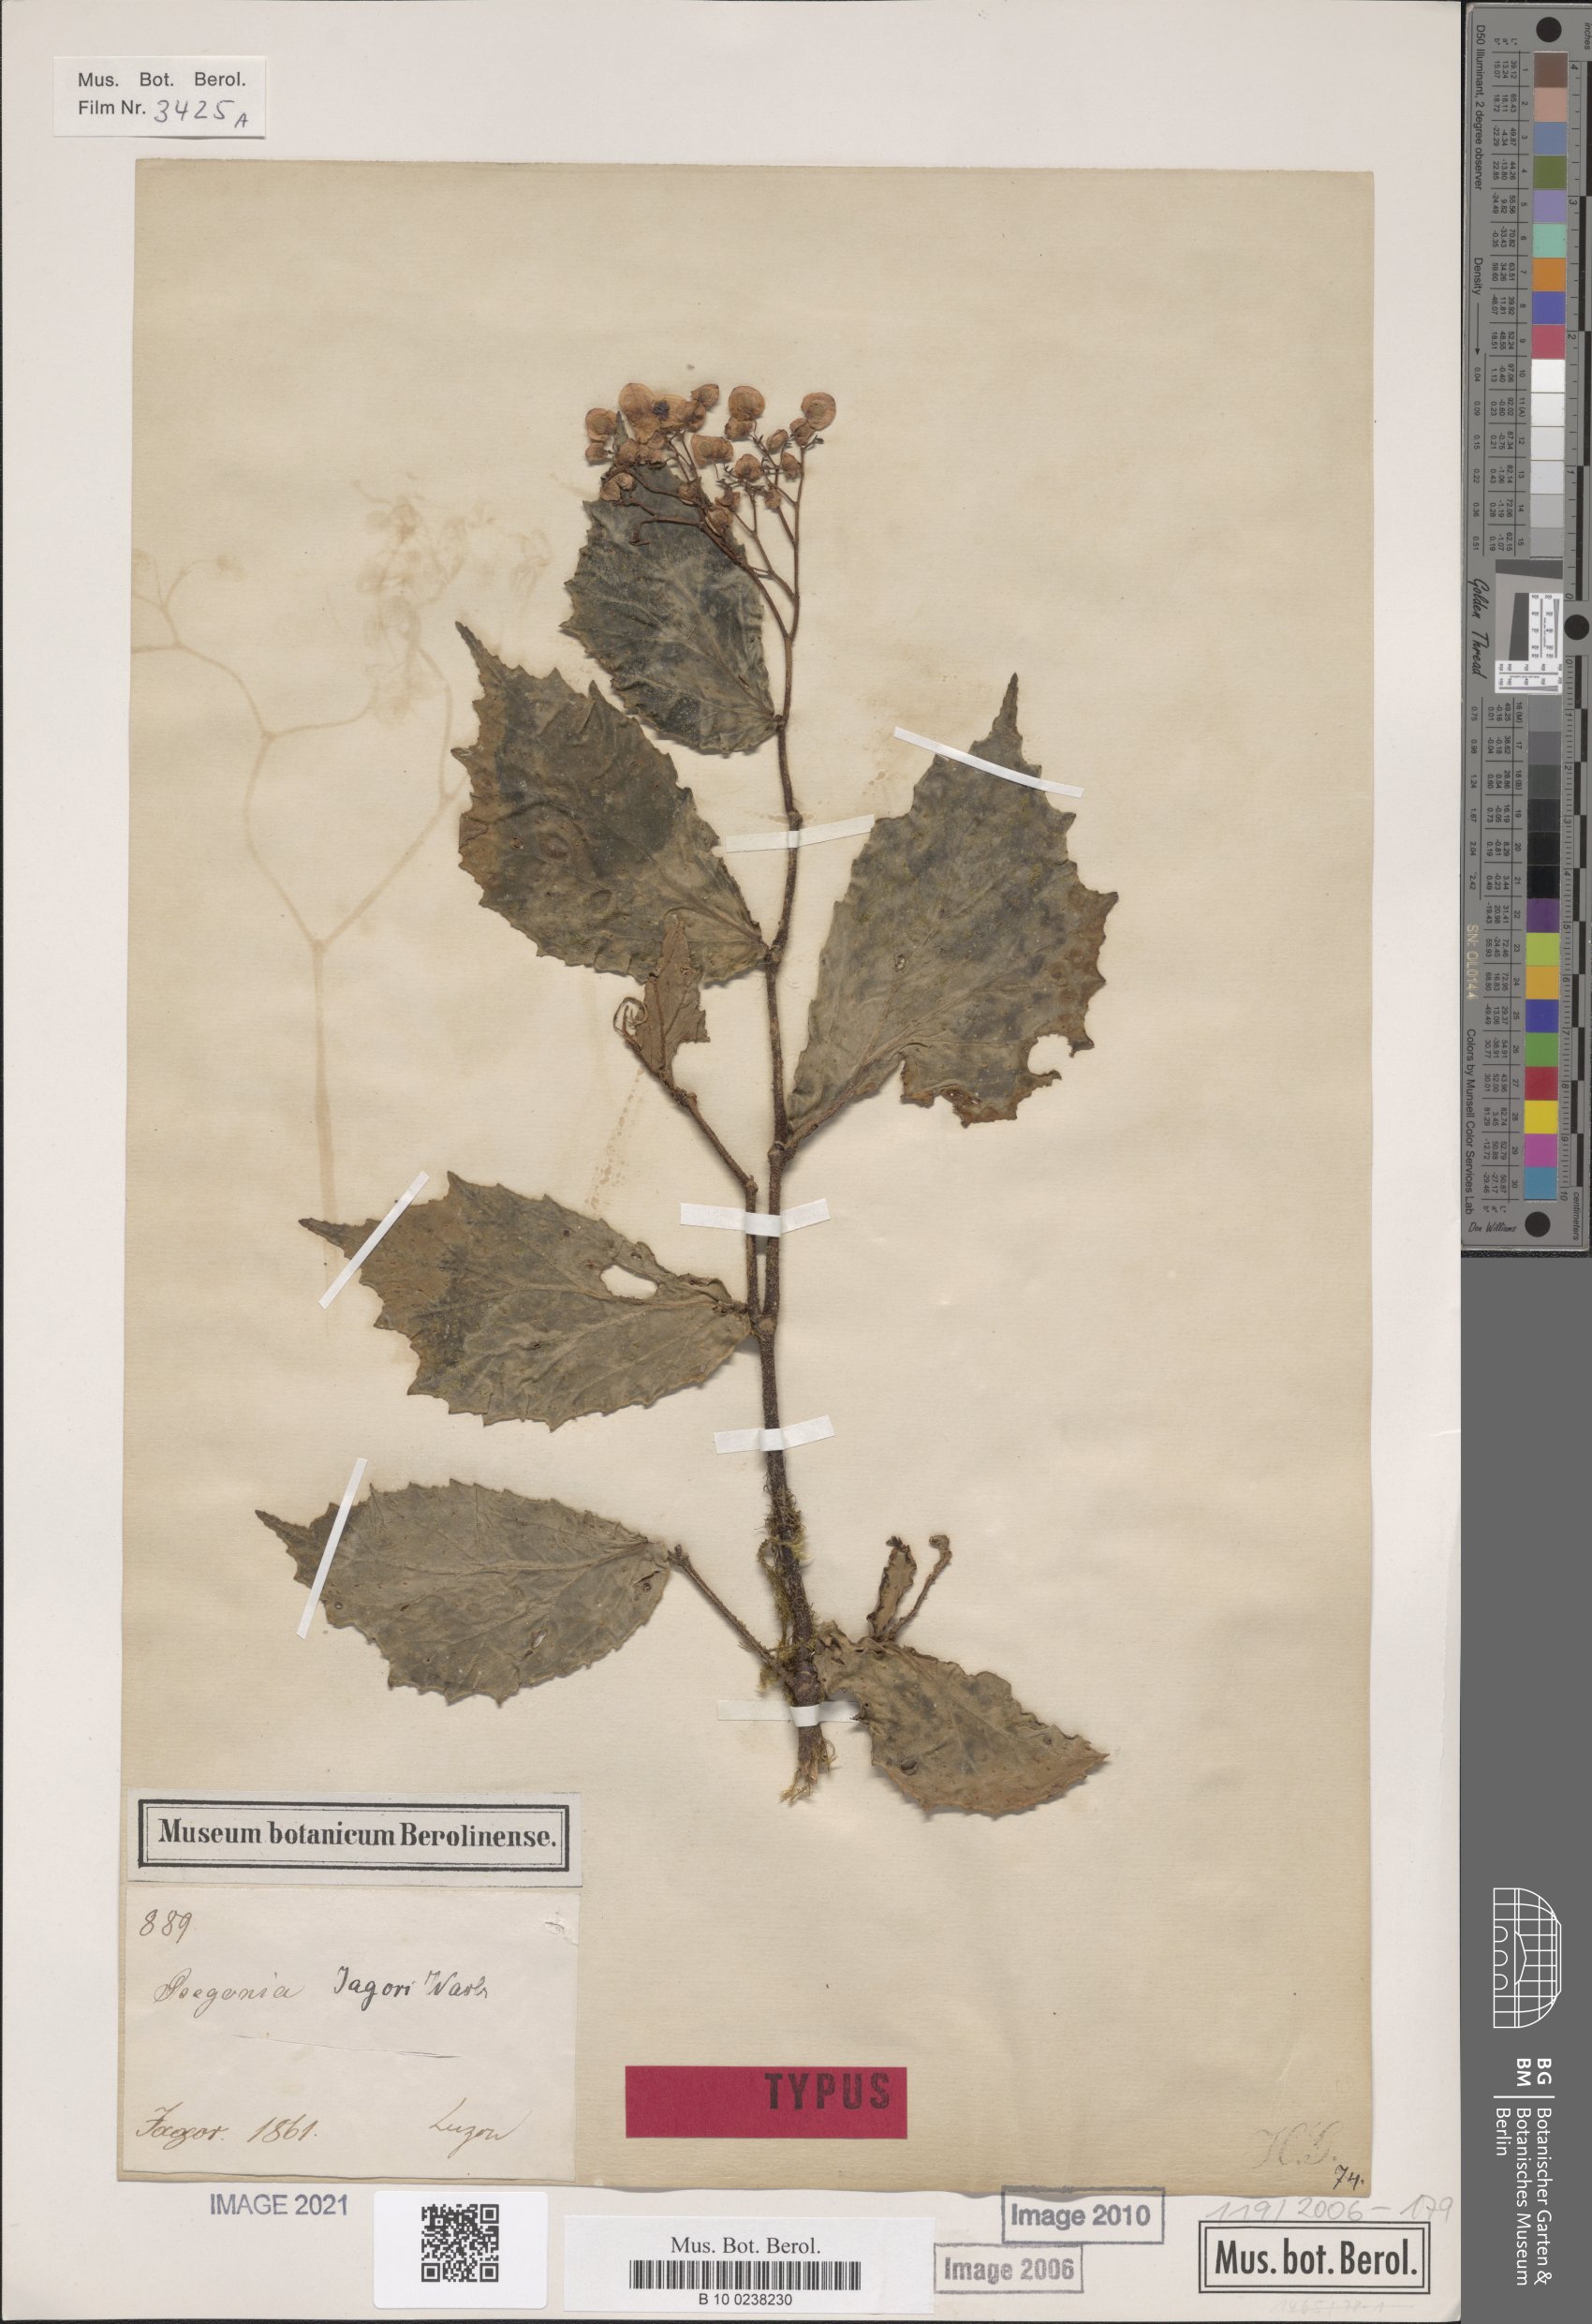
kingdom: Plantae
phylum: Tracheophyta
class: Magnoliopsida
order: Cucurbitales
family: Begoniaceae
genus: Begonia
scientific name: Begonia jagorii
